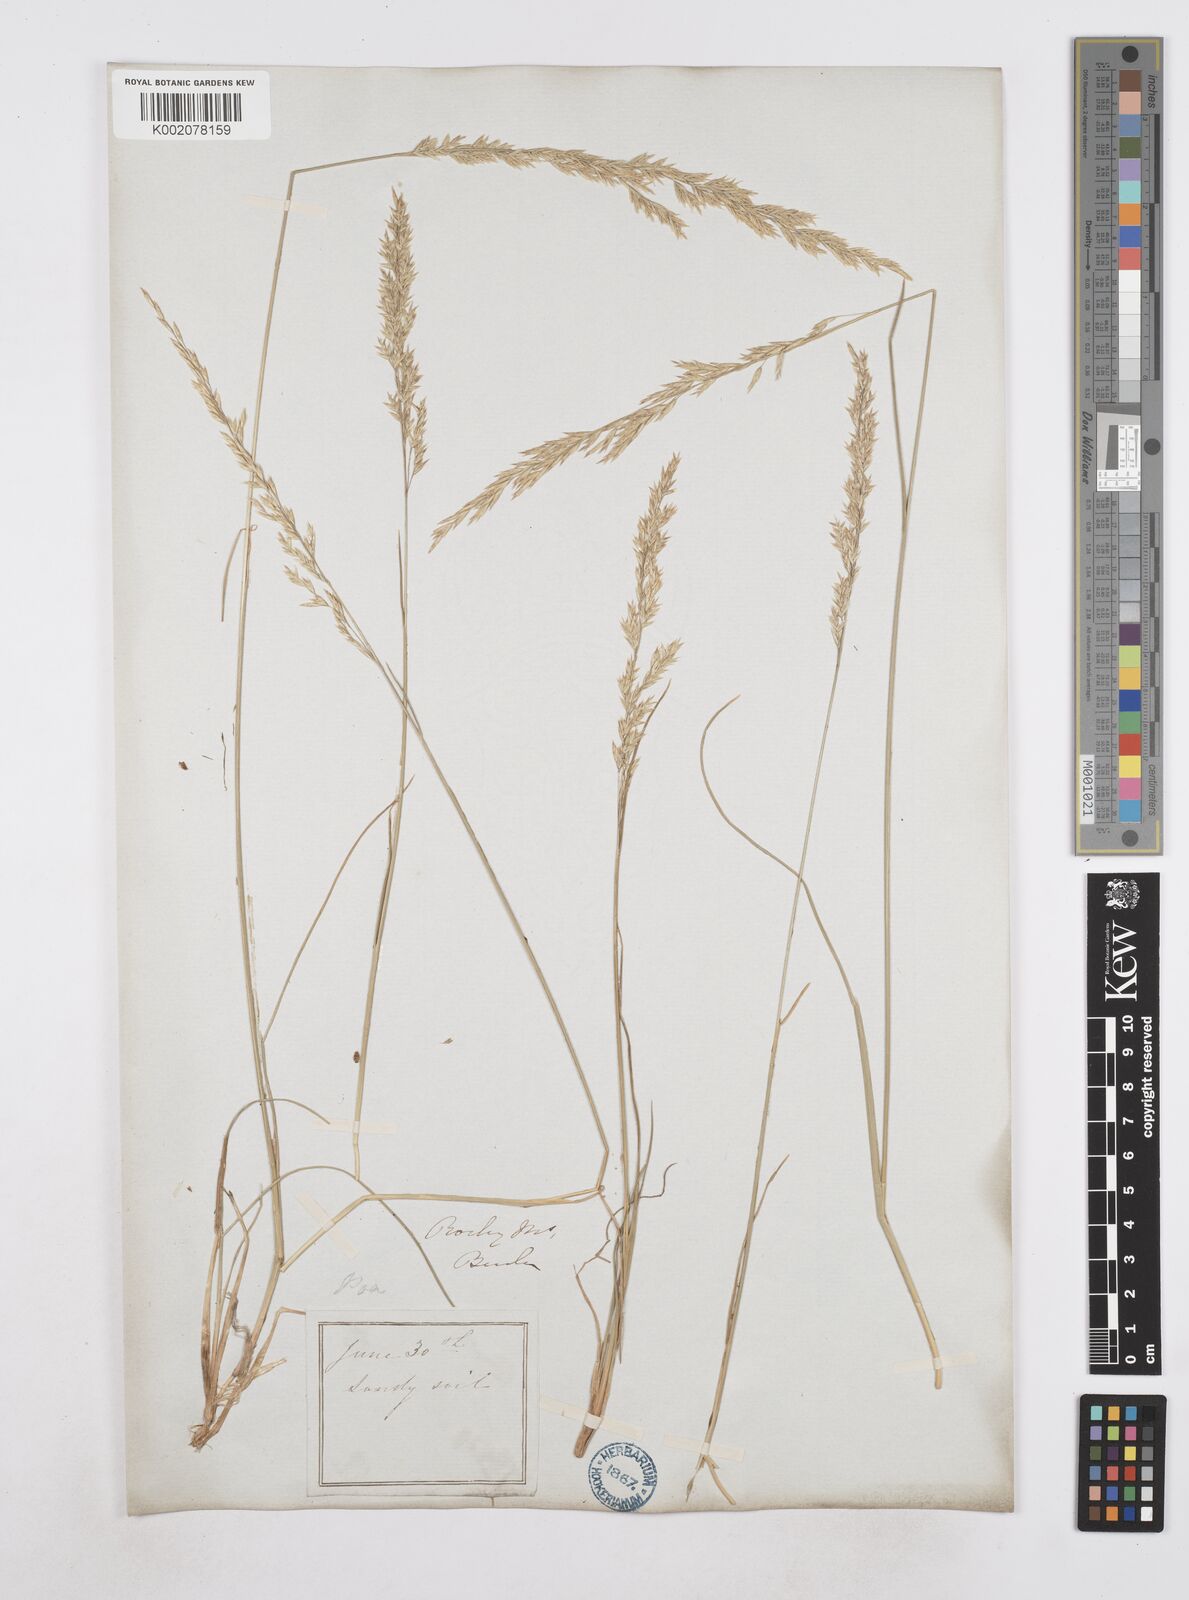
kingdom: Plantae
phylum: Tracheophyta
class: Liliopsida
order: Poales
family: Poaceae
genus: Poa
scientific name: Poa
